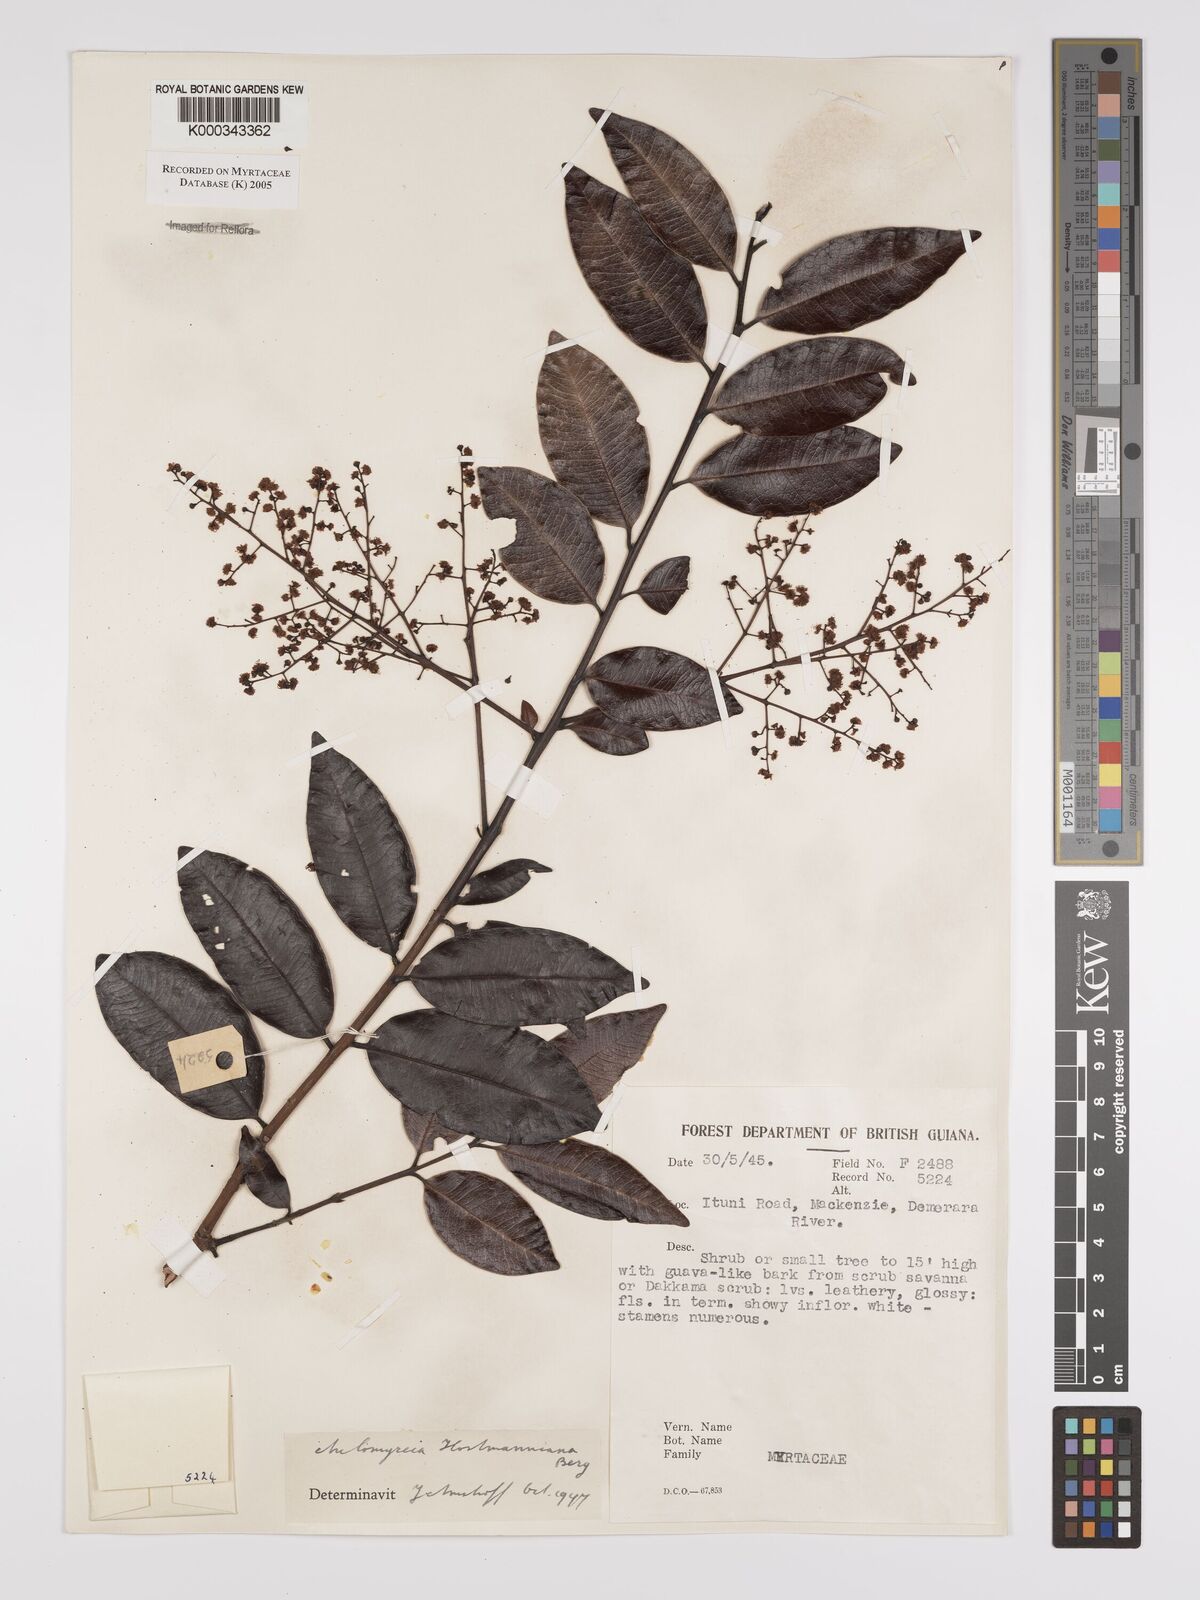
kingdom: Plantae
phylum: Tracheophyta
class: Magnoliopsida
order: Myrtales
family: Myrtaceae
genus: Myrcia
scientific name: Myrcia amazonica
